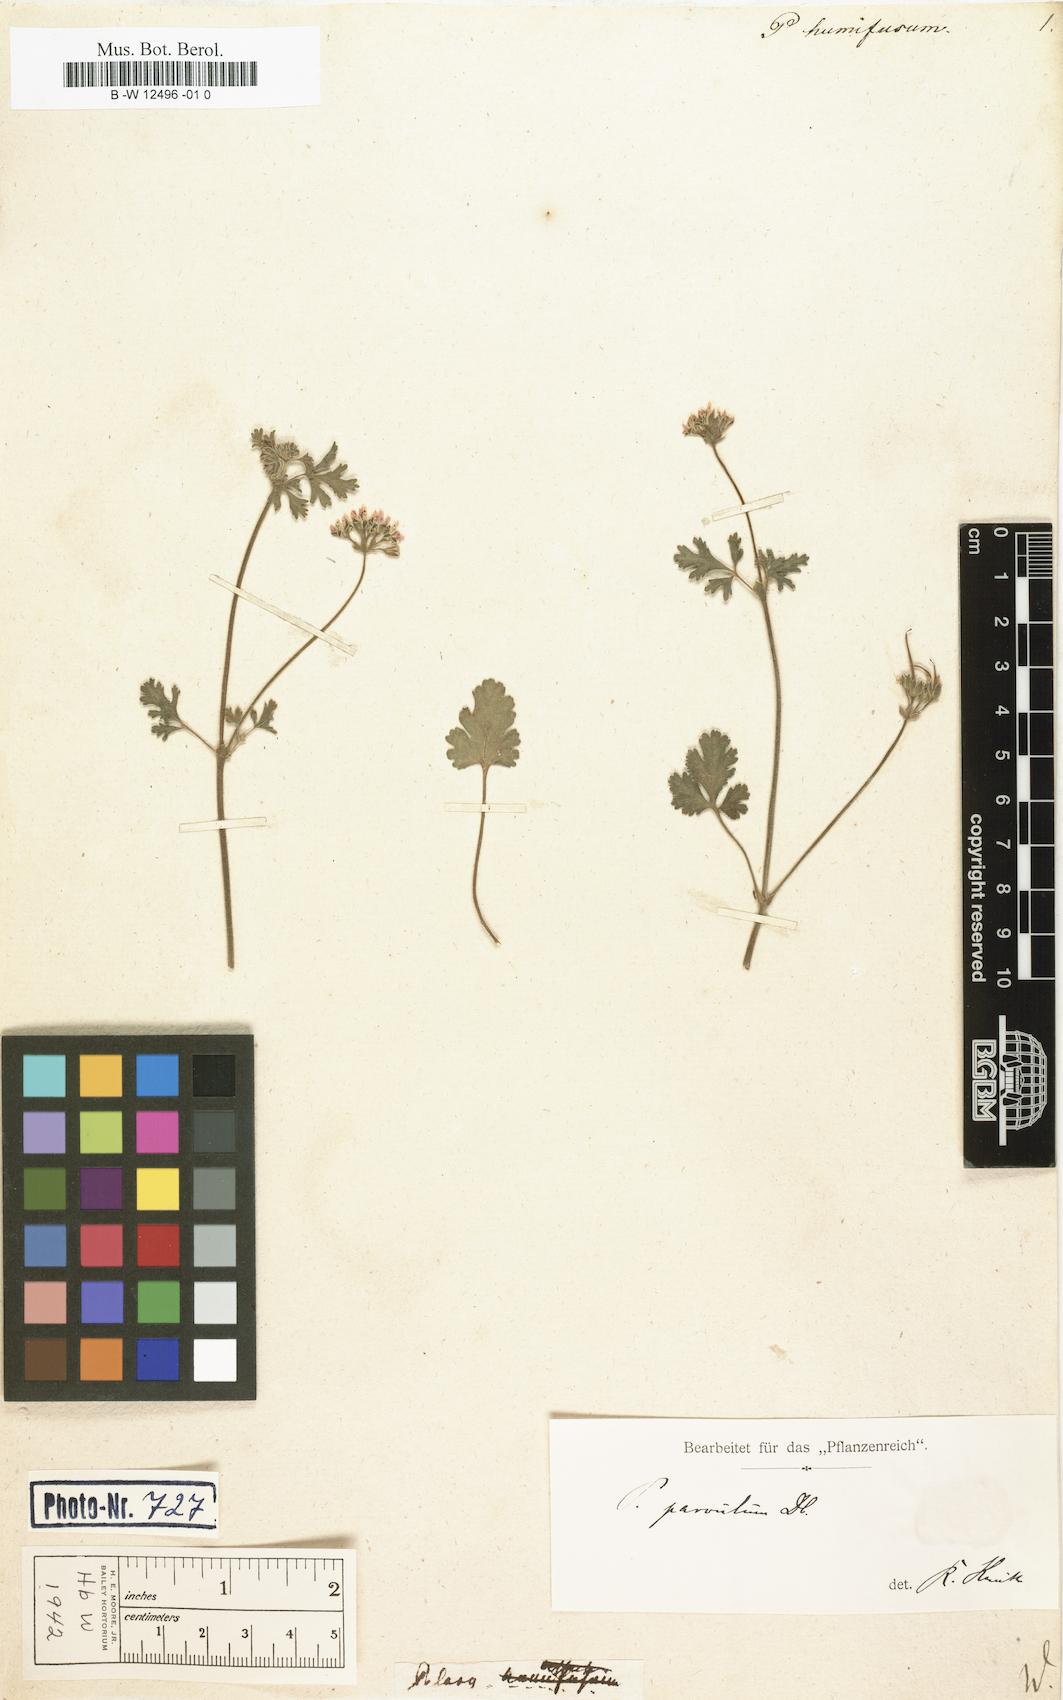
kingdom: Plantae
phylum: Tracheophyta
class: Magnoliopsida
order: Geraniales
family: Geraniaceae
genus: Pelargonium
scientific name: Pelargonium
